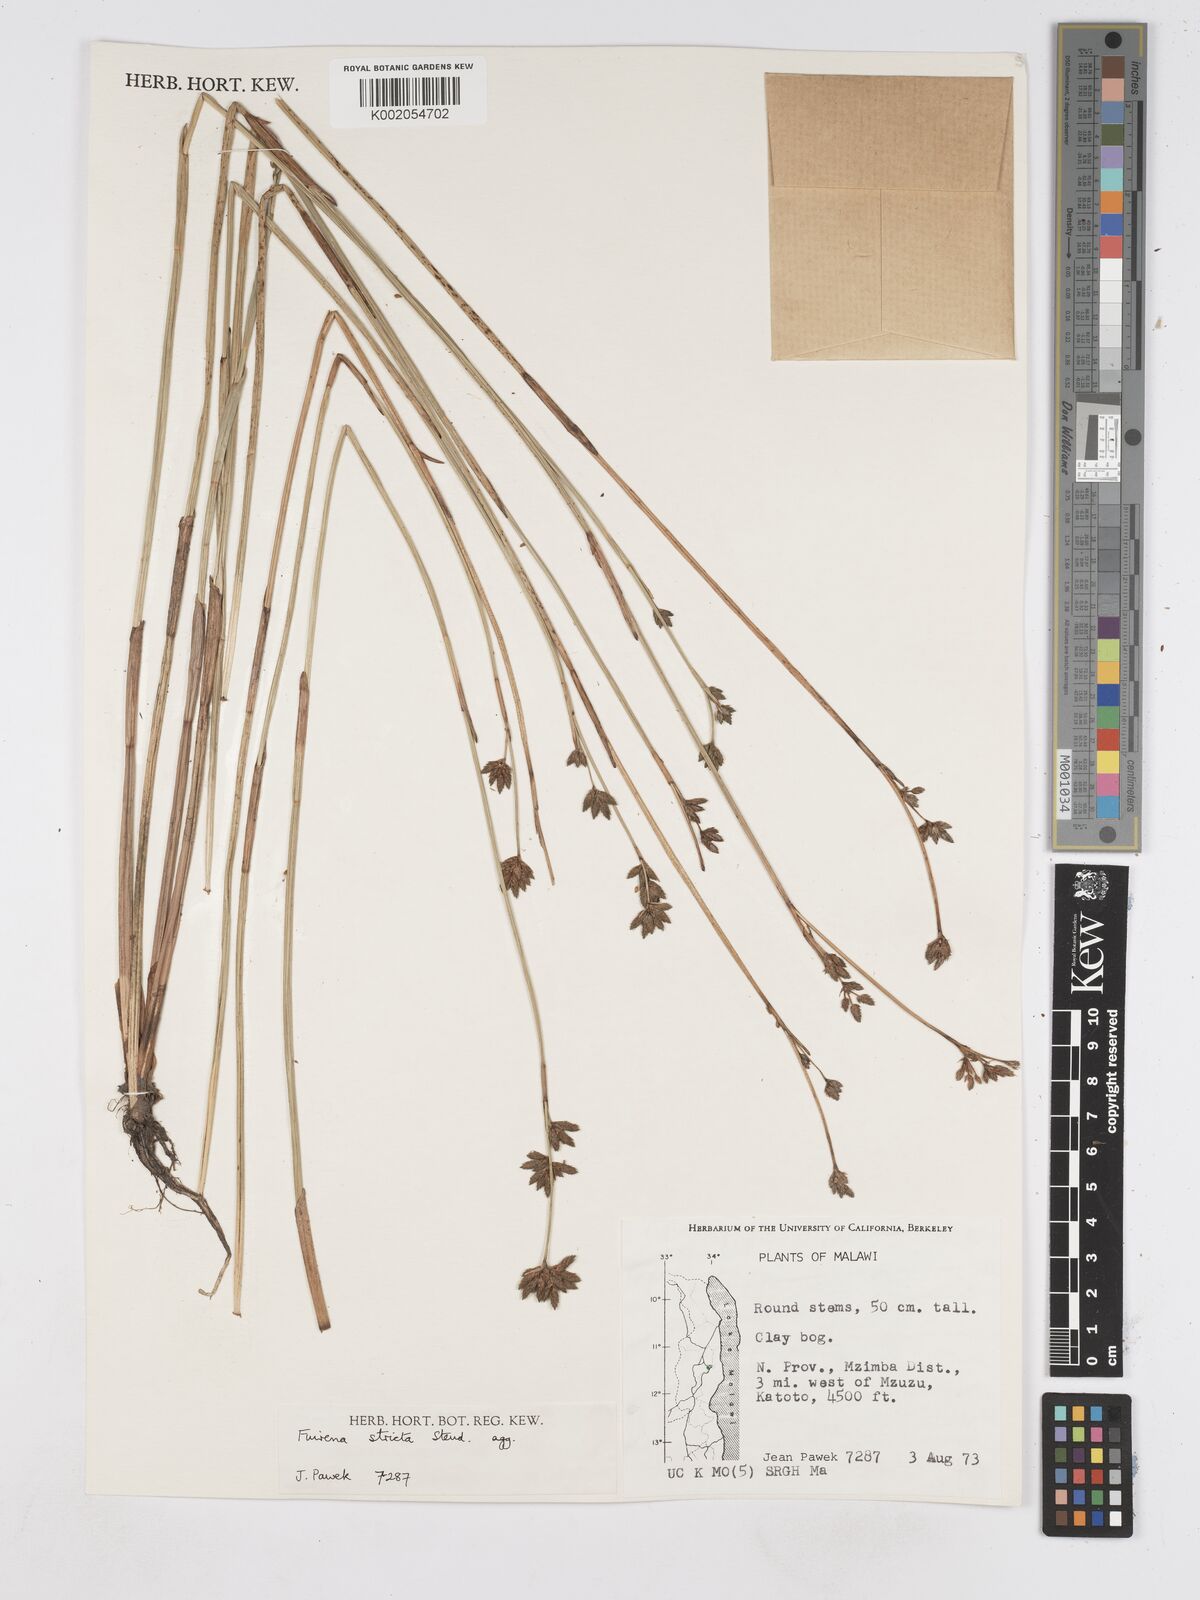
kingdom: Plantae
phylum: Tracheophyta
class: Liliopsida
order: Poales
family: Cyperaceae
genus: Fuirena
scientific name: Fuirena stricta
